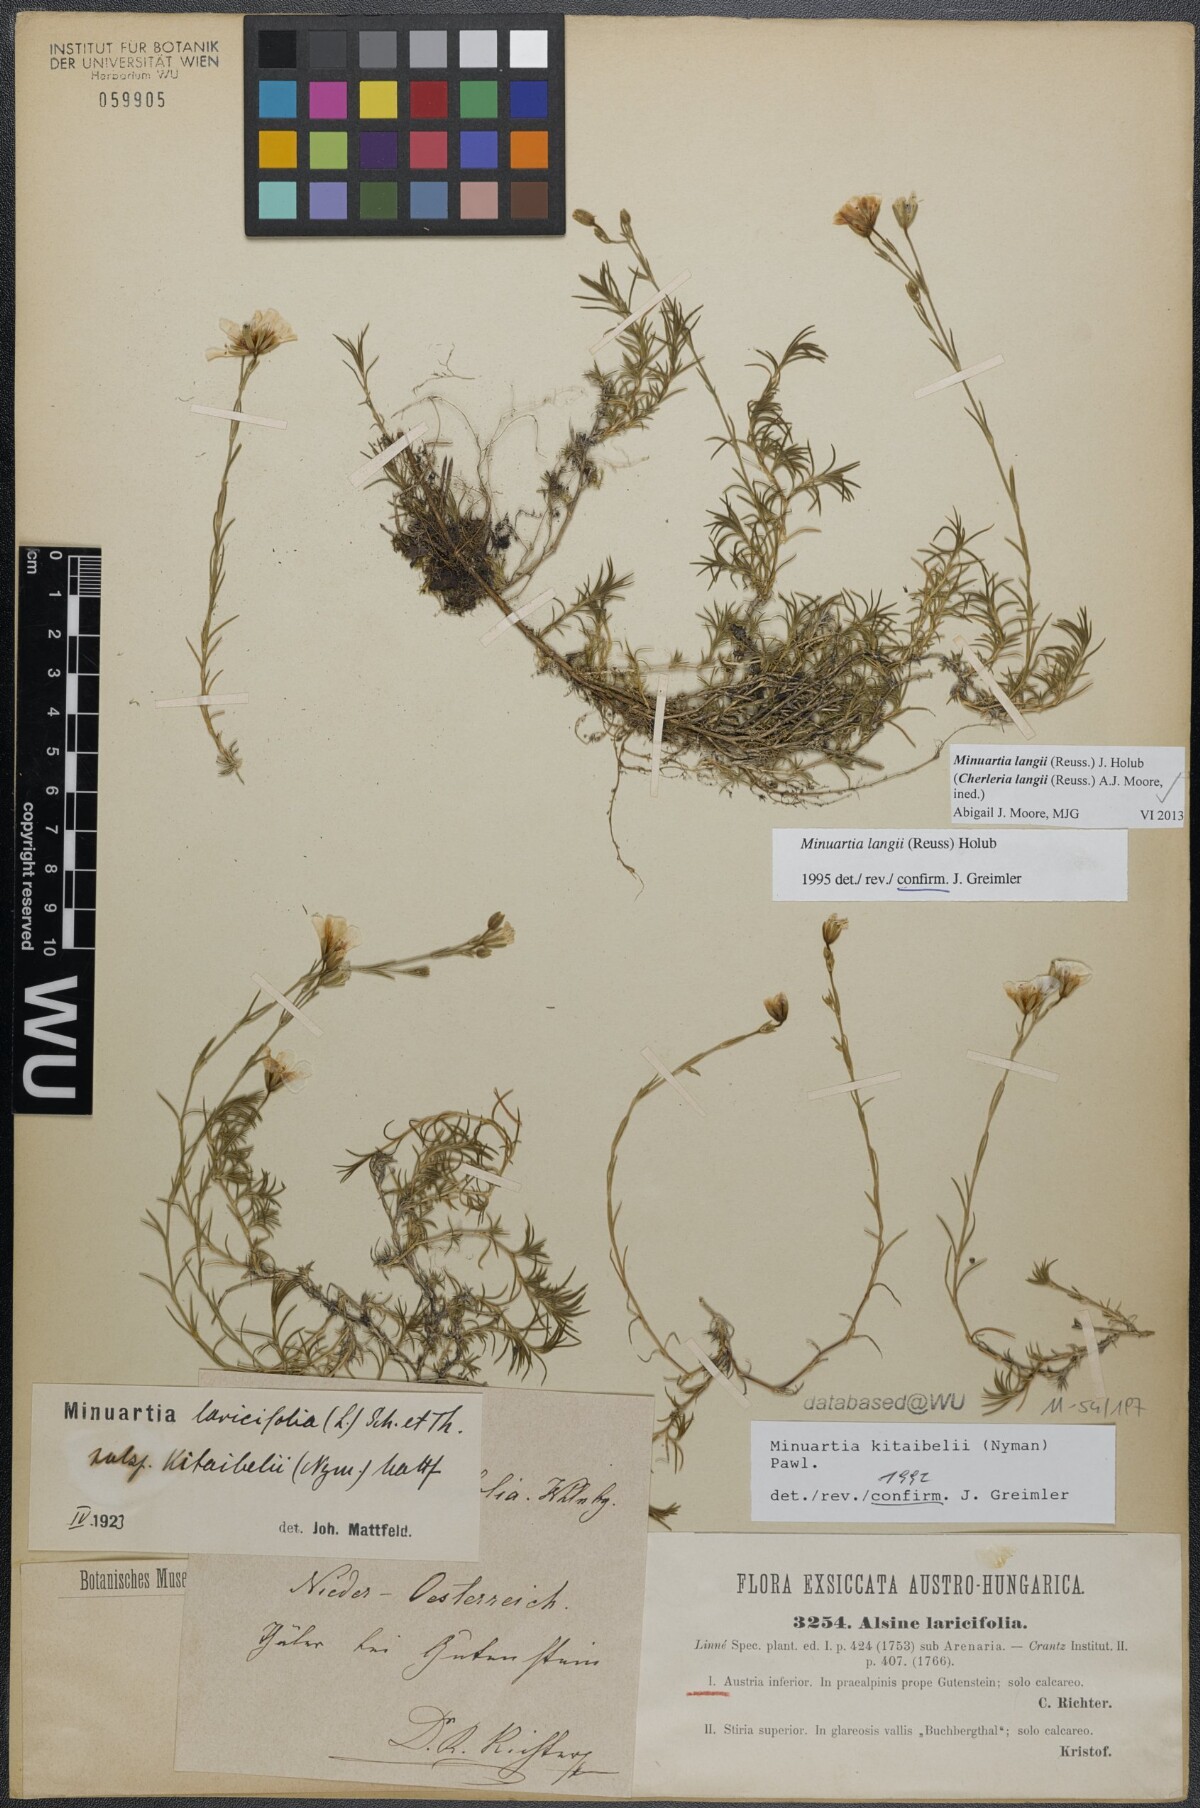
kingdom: Plantae
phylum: Tracheophyta
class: Magnoliopsida
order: Caryophyllales
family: Caryophyllaceae
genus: Cherleria
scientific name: Cherleria langii
